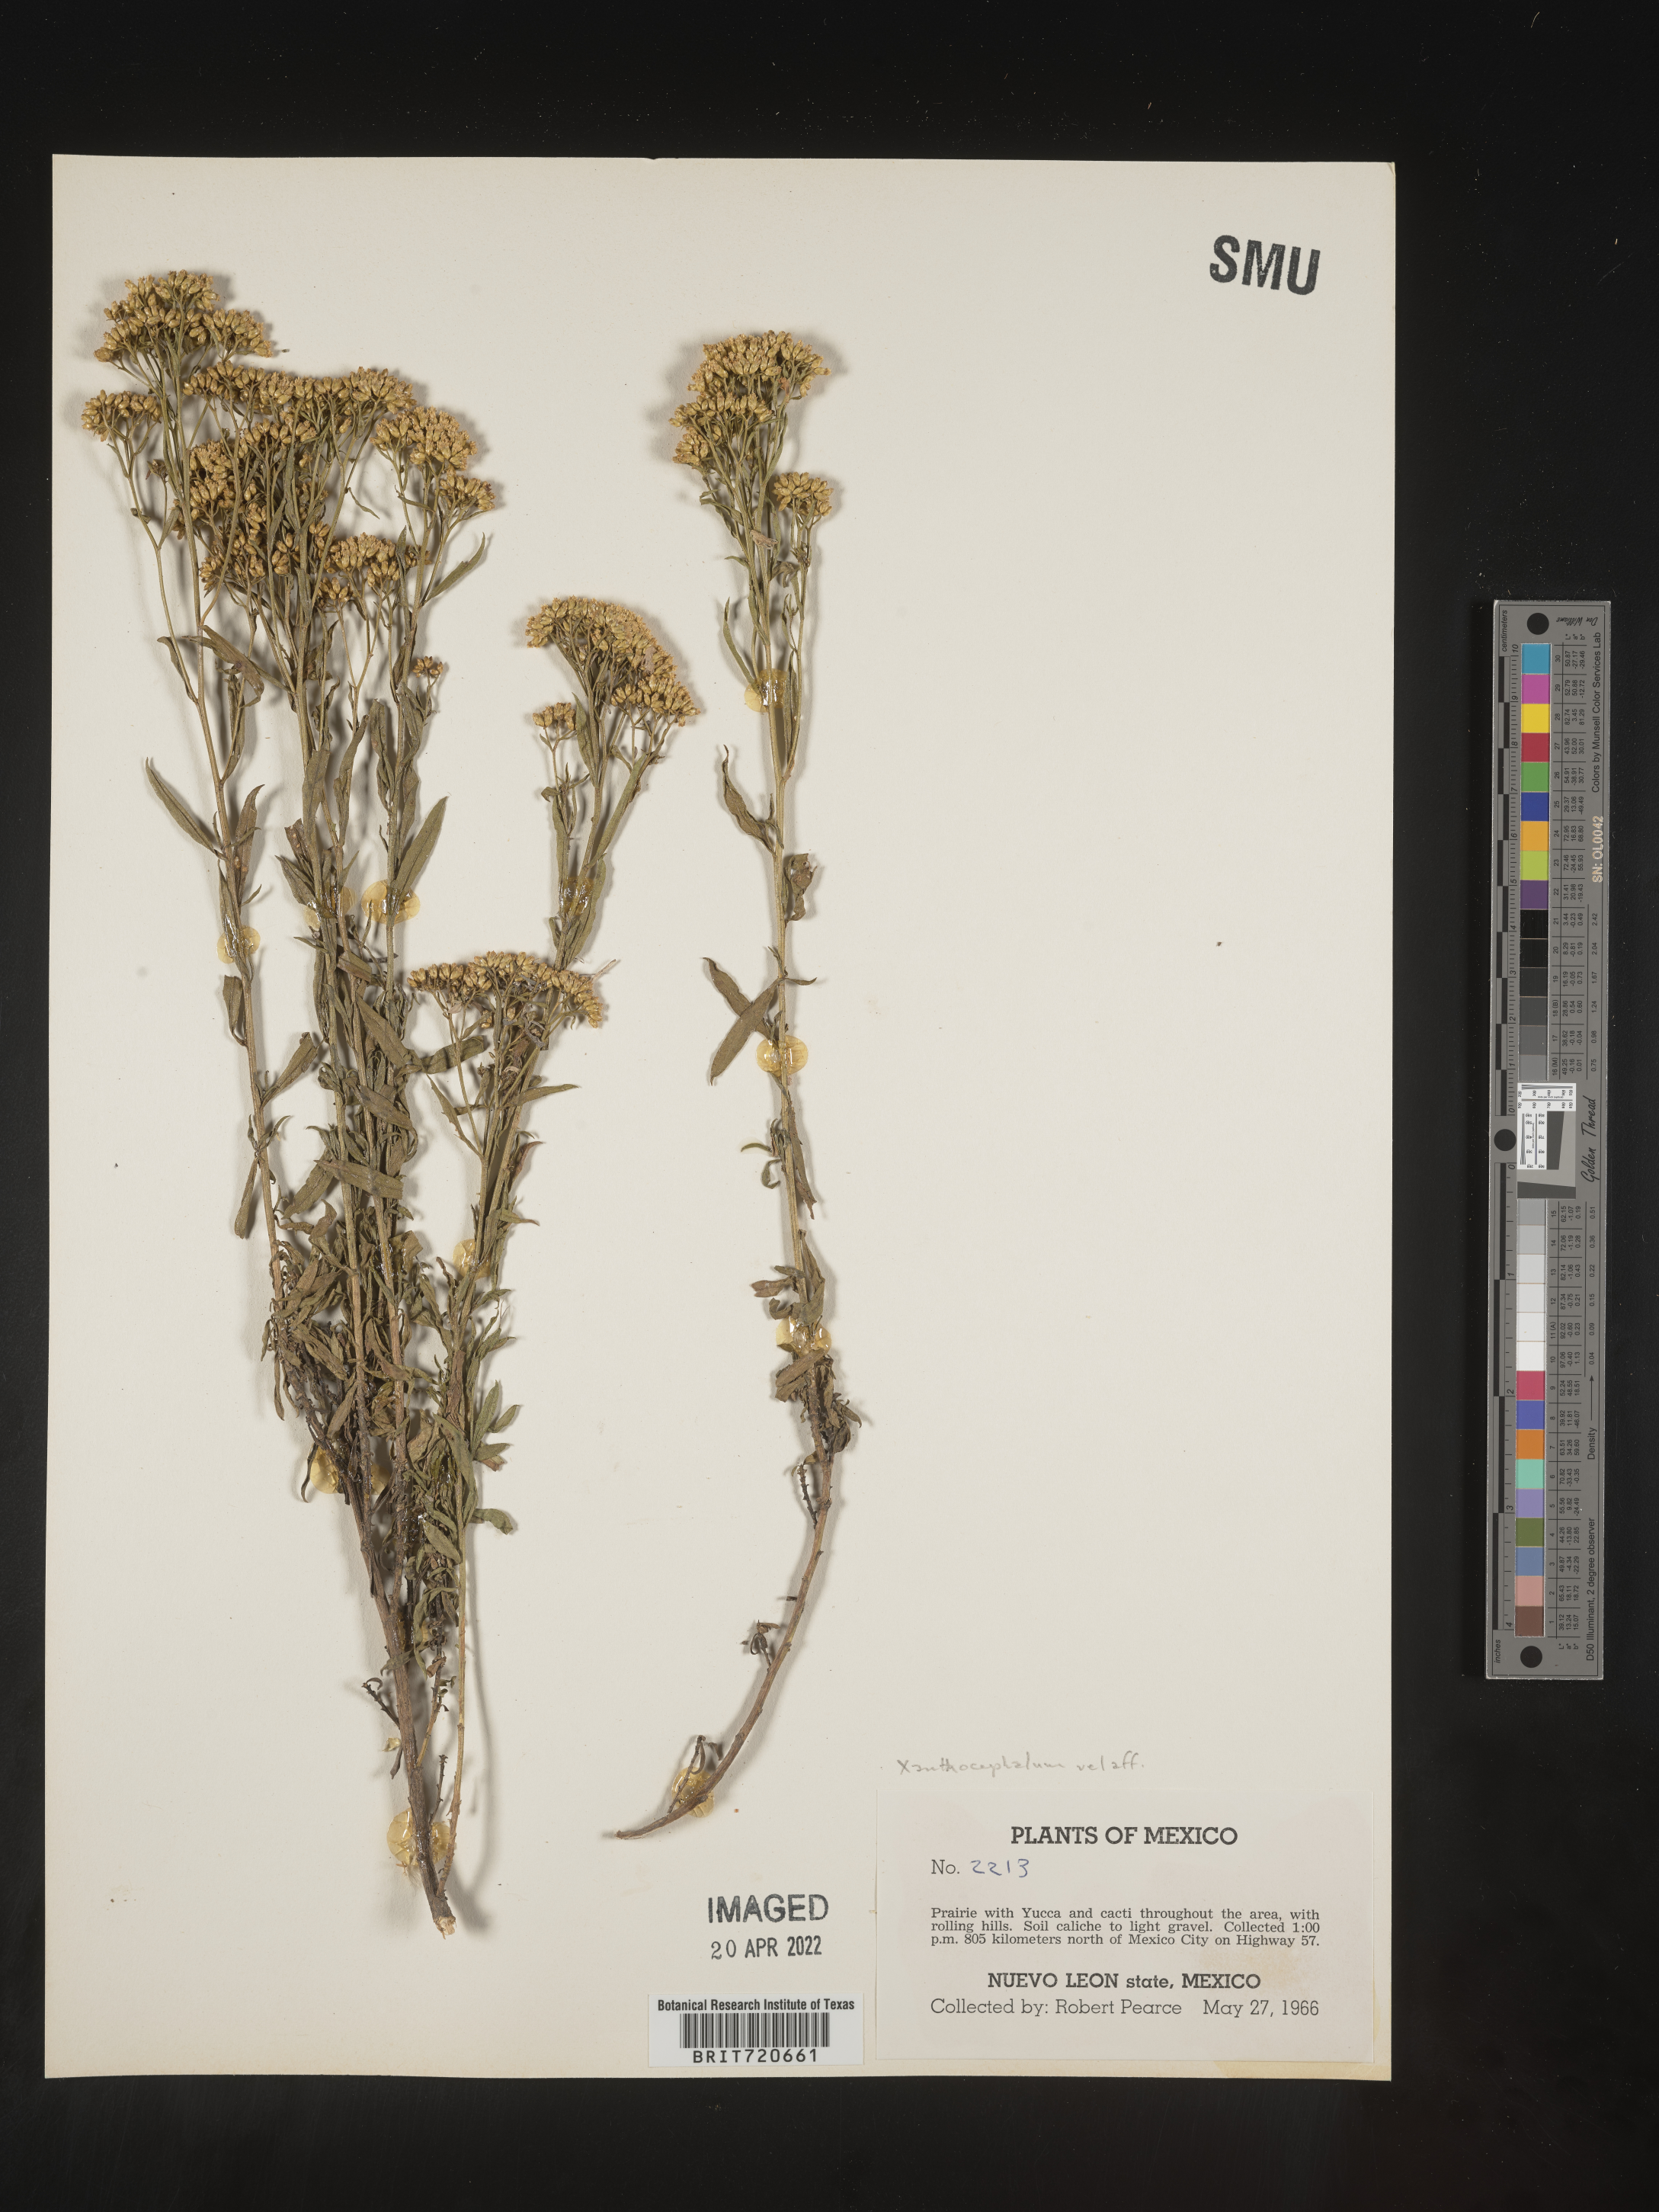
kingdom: Plantae
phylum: Tracheophyta
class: Magnoliopsida
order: Asterales
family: Asteraceae
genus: Gymnosperma
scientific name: Gymnosperma glutinosum
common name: Gumhead
